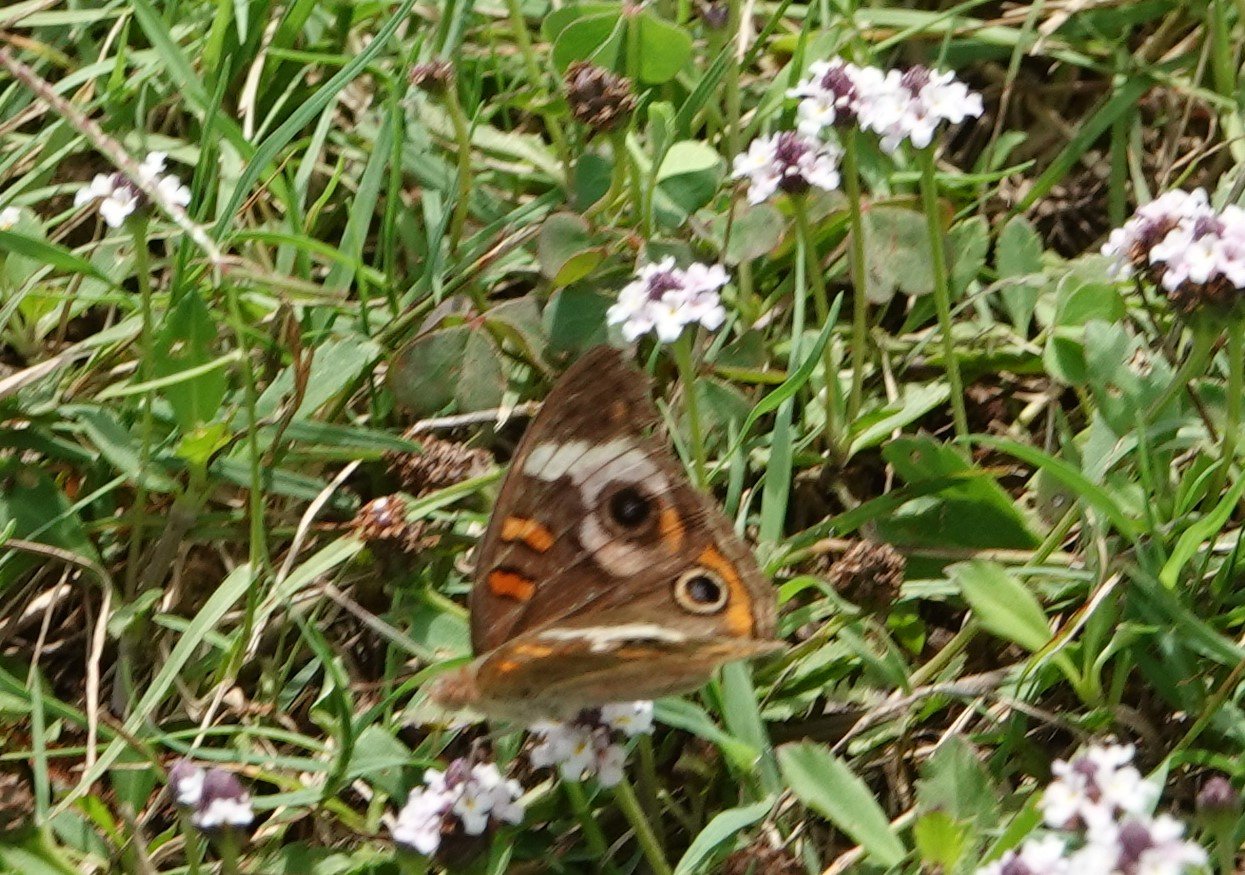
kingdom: Animalia
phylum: Arthropoda
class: Insecta
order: Lepidoptera
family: Nymphalidae
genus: Junonia
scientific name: Junonia coenia
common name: Common Buckeye
